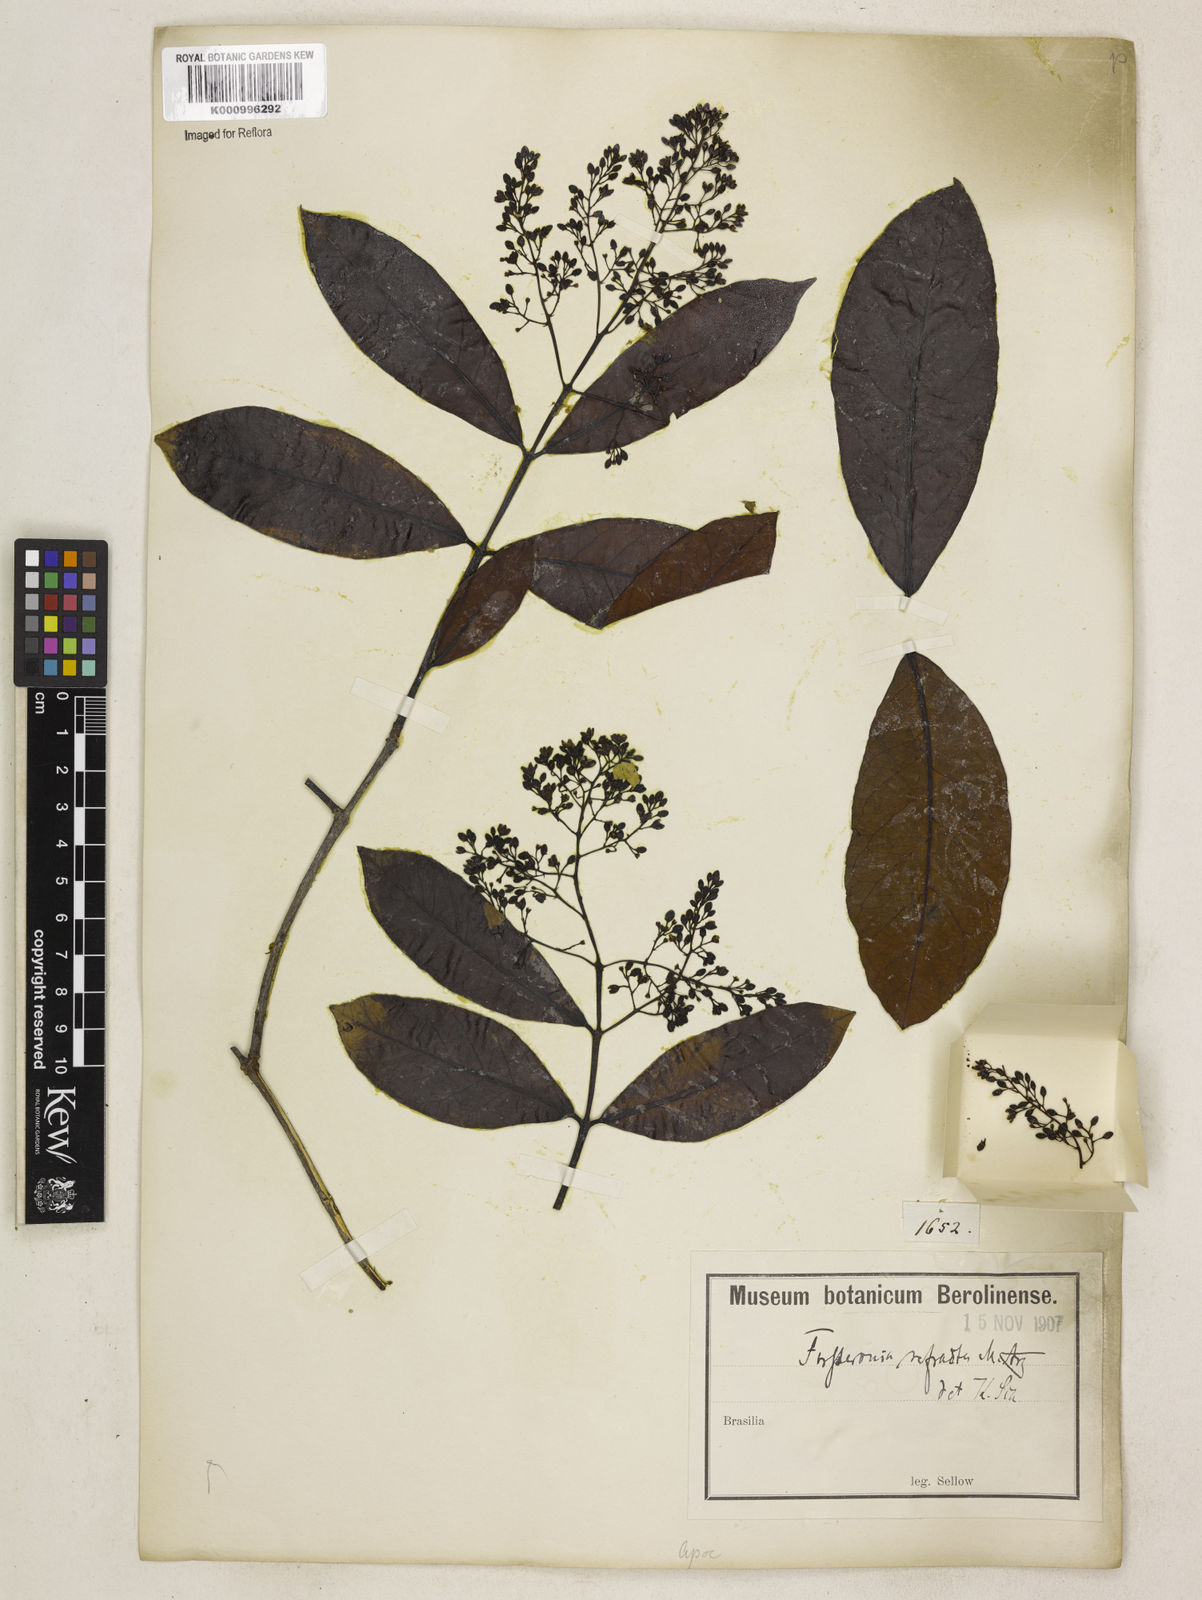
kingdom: Plantae
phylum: Tracheophyta
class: Magnoliopsida
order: Gentianales
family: Apocynaceae
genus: Forsteronia
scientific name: Forsteronia
